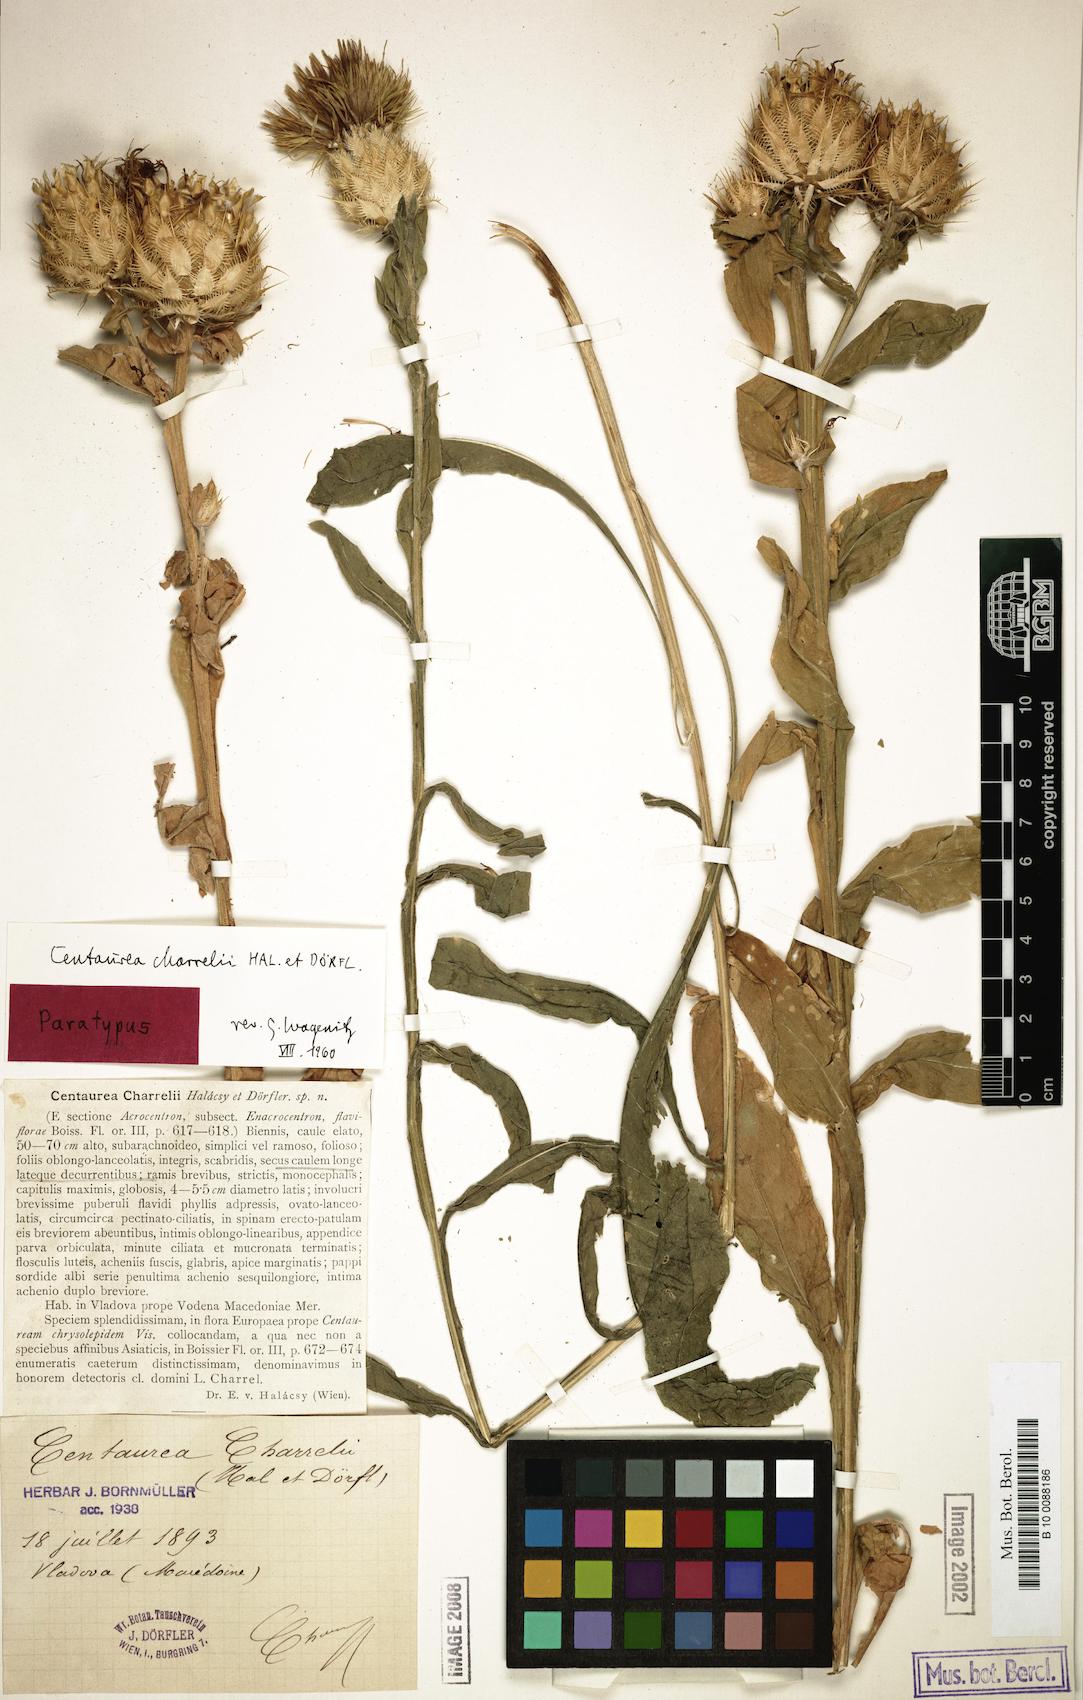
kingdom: Plantae
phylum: Tracheophyta
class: Magnoliopsida
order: Asterales
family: Asteraceae
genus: Centaurea
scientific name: Centaurea charrelii
